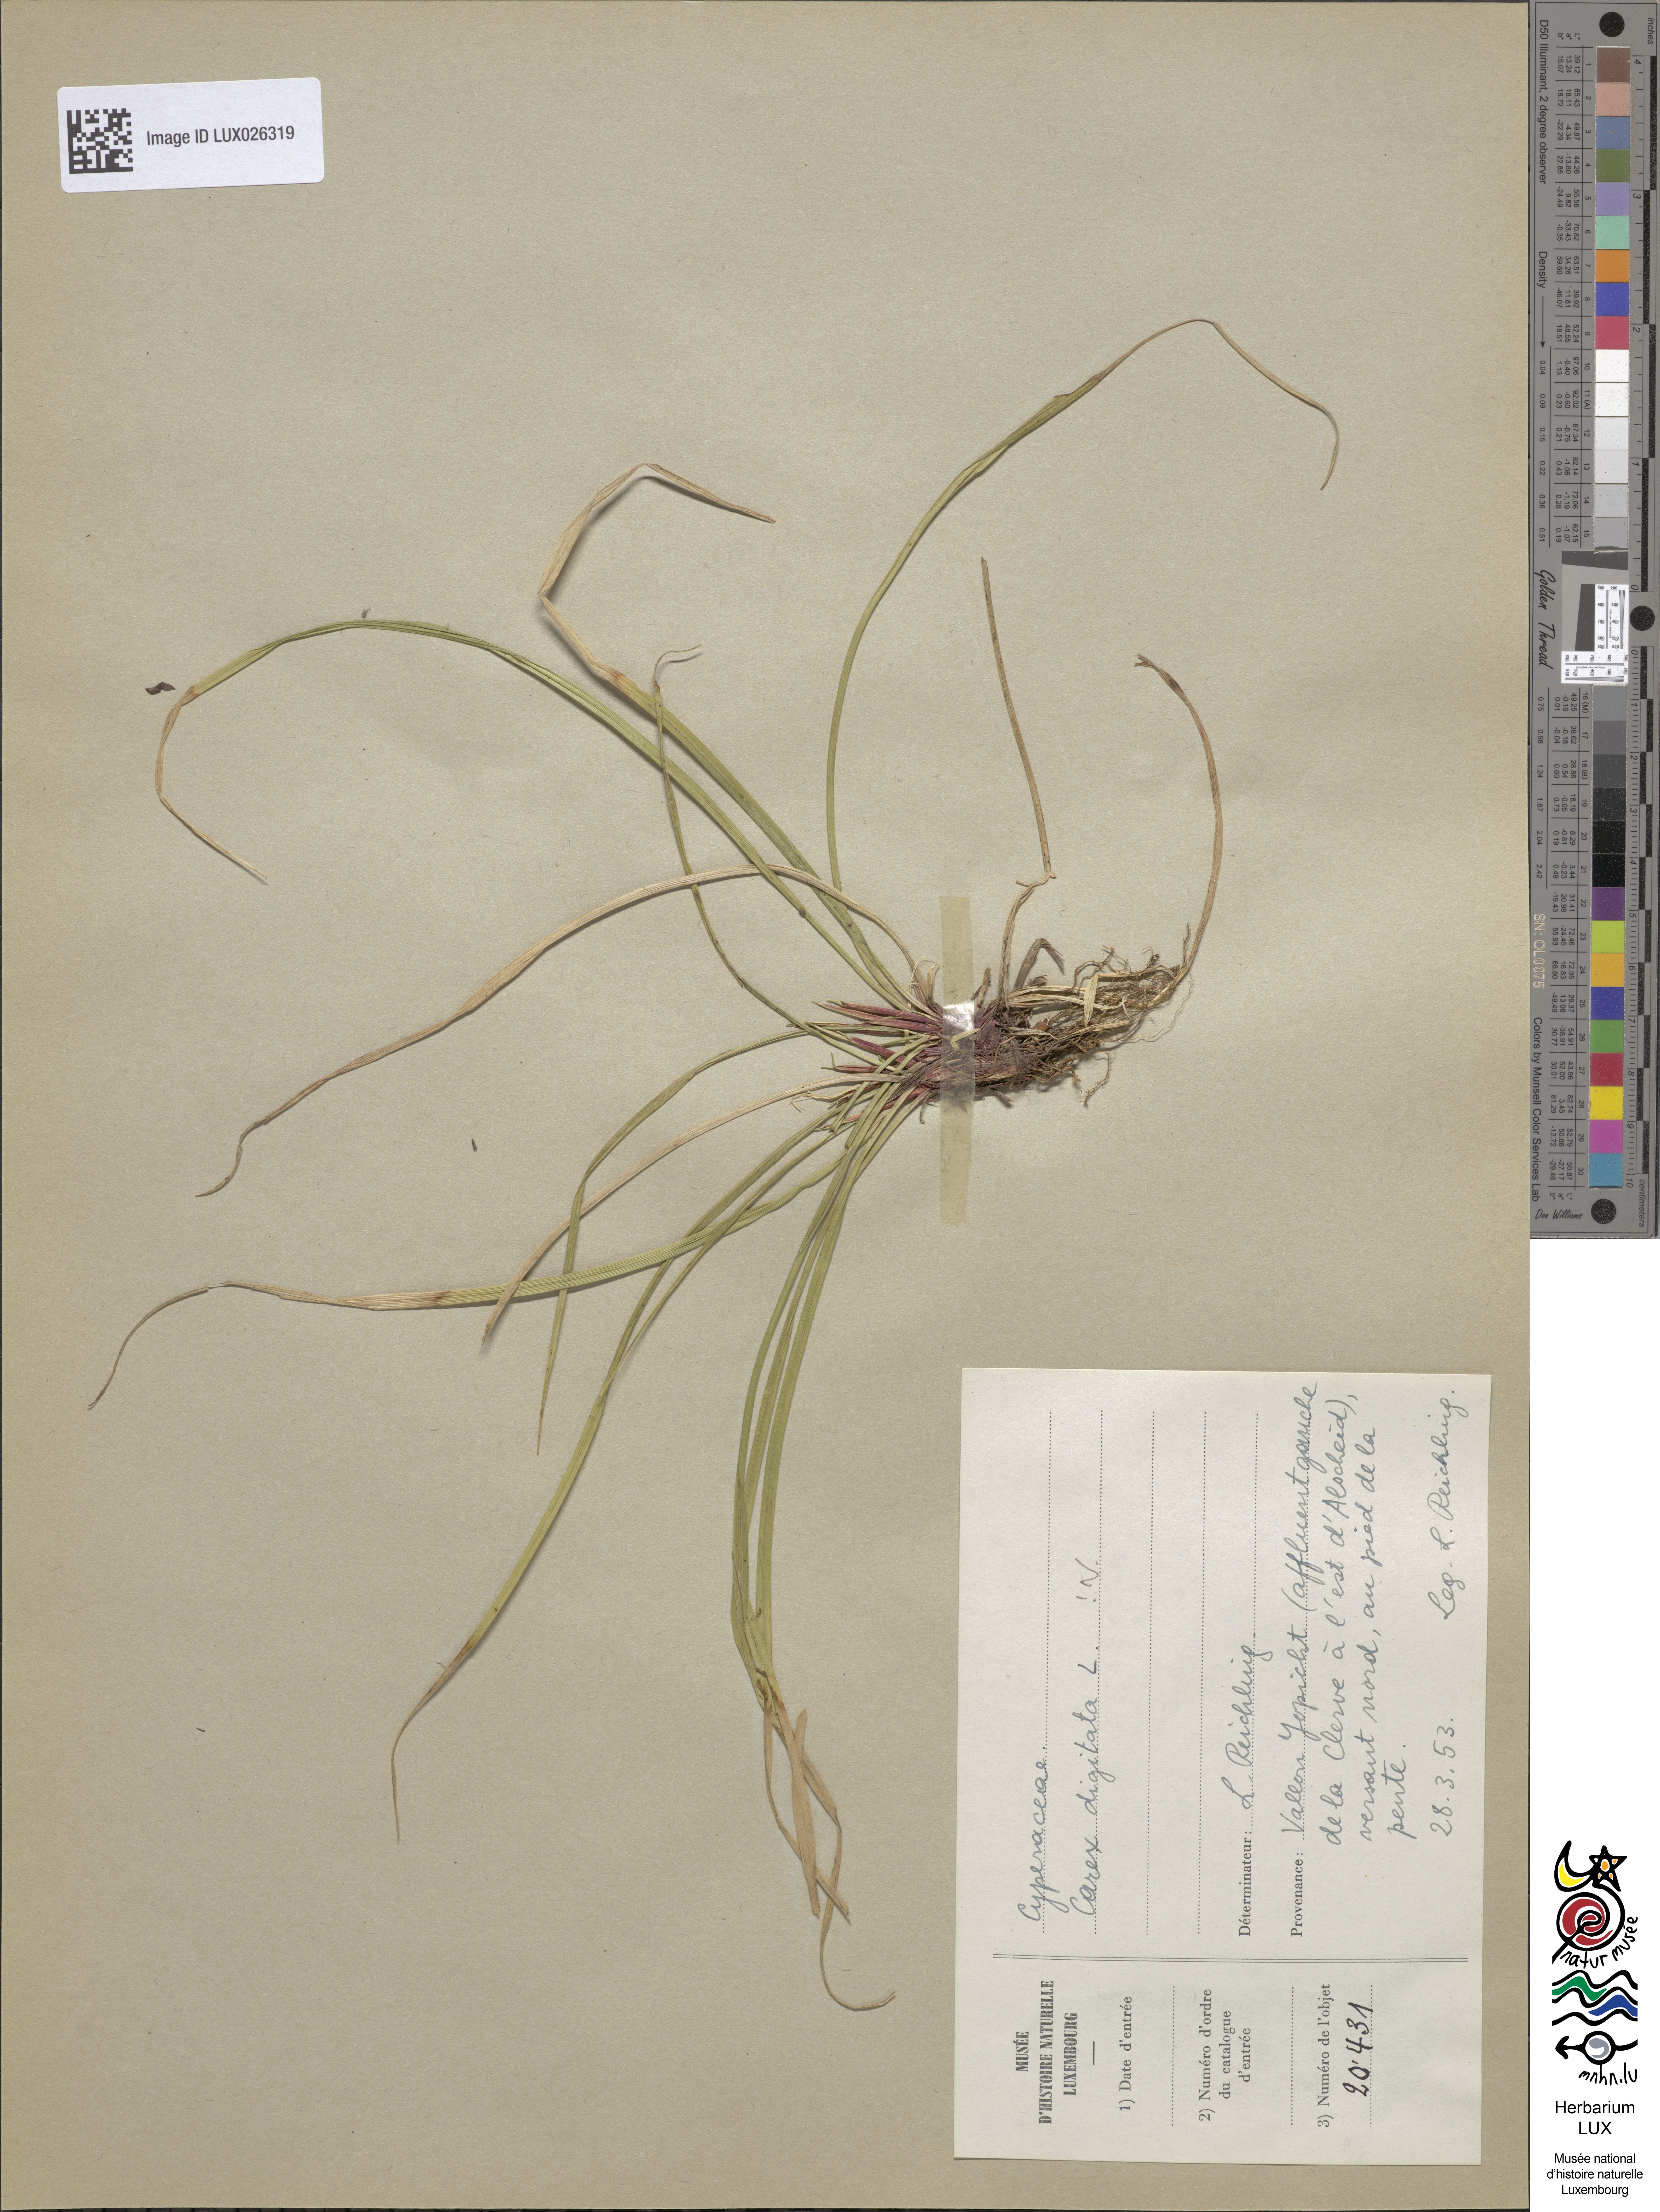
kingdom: Plantae
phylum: Tracheophyta
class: Liliopsida
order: Poales
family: Cyperaceae
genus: Carex
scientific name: Carex digitata
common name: Fingered sedge
